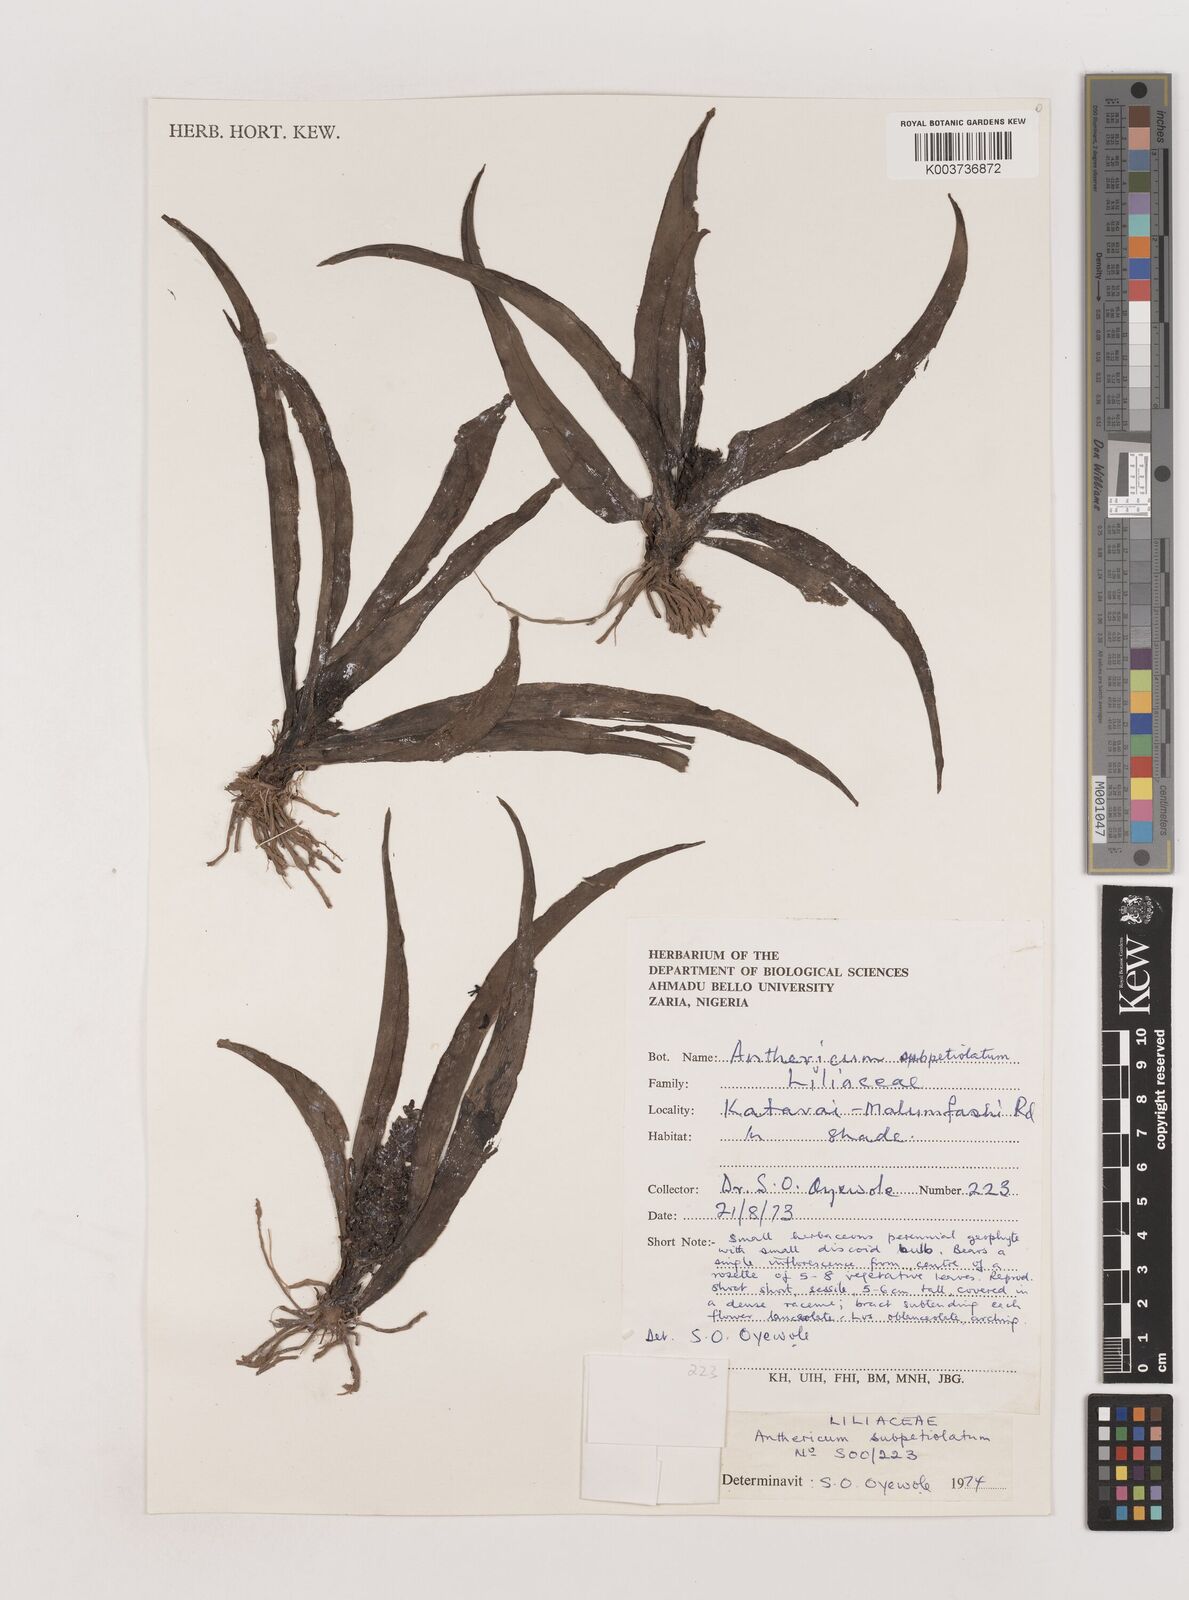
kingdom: Plantae
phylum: Tracheophyta
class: Liliopsida
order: Asparagales
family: Asparagaceae
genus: Chlorophytum
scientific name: Chlorophytum blepharophyllum
